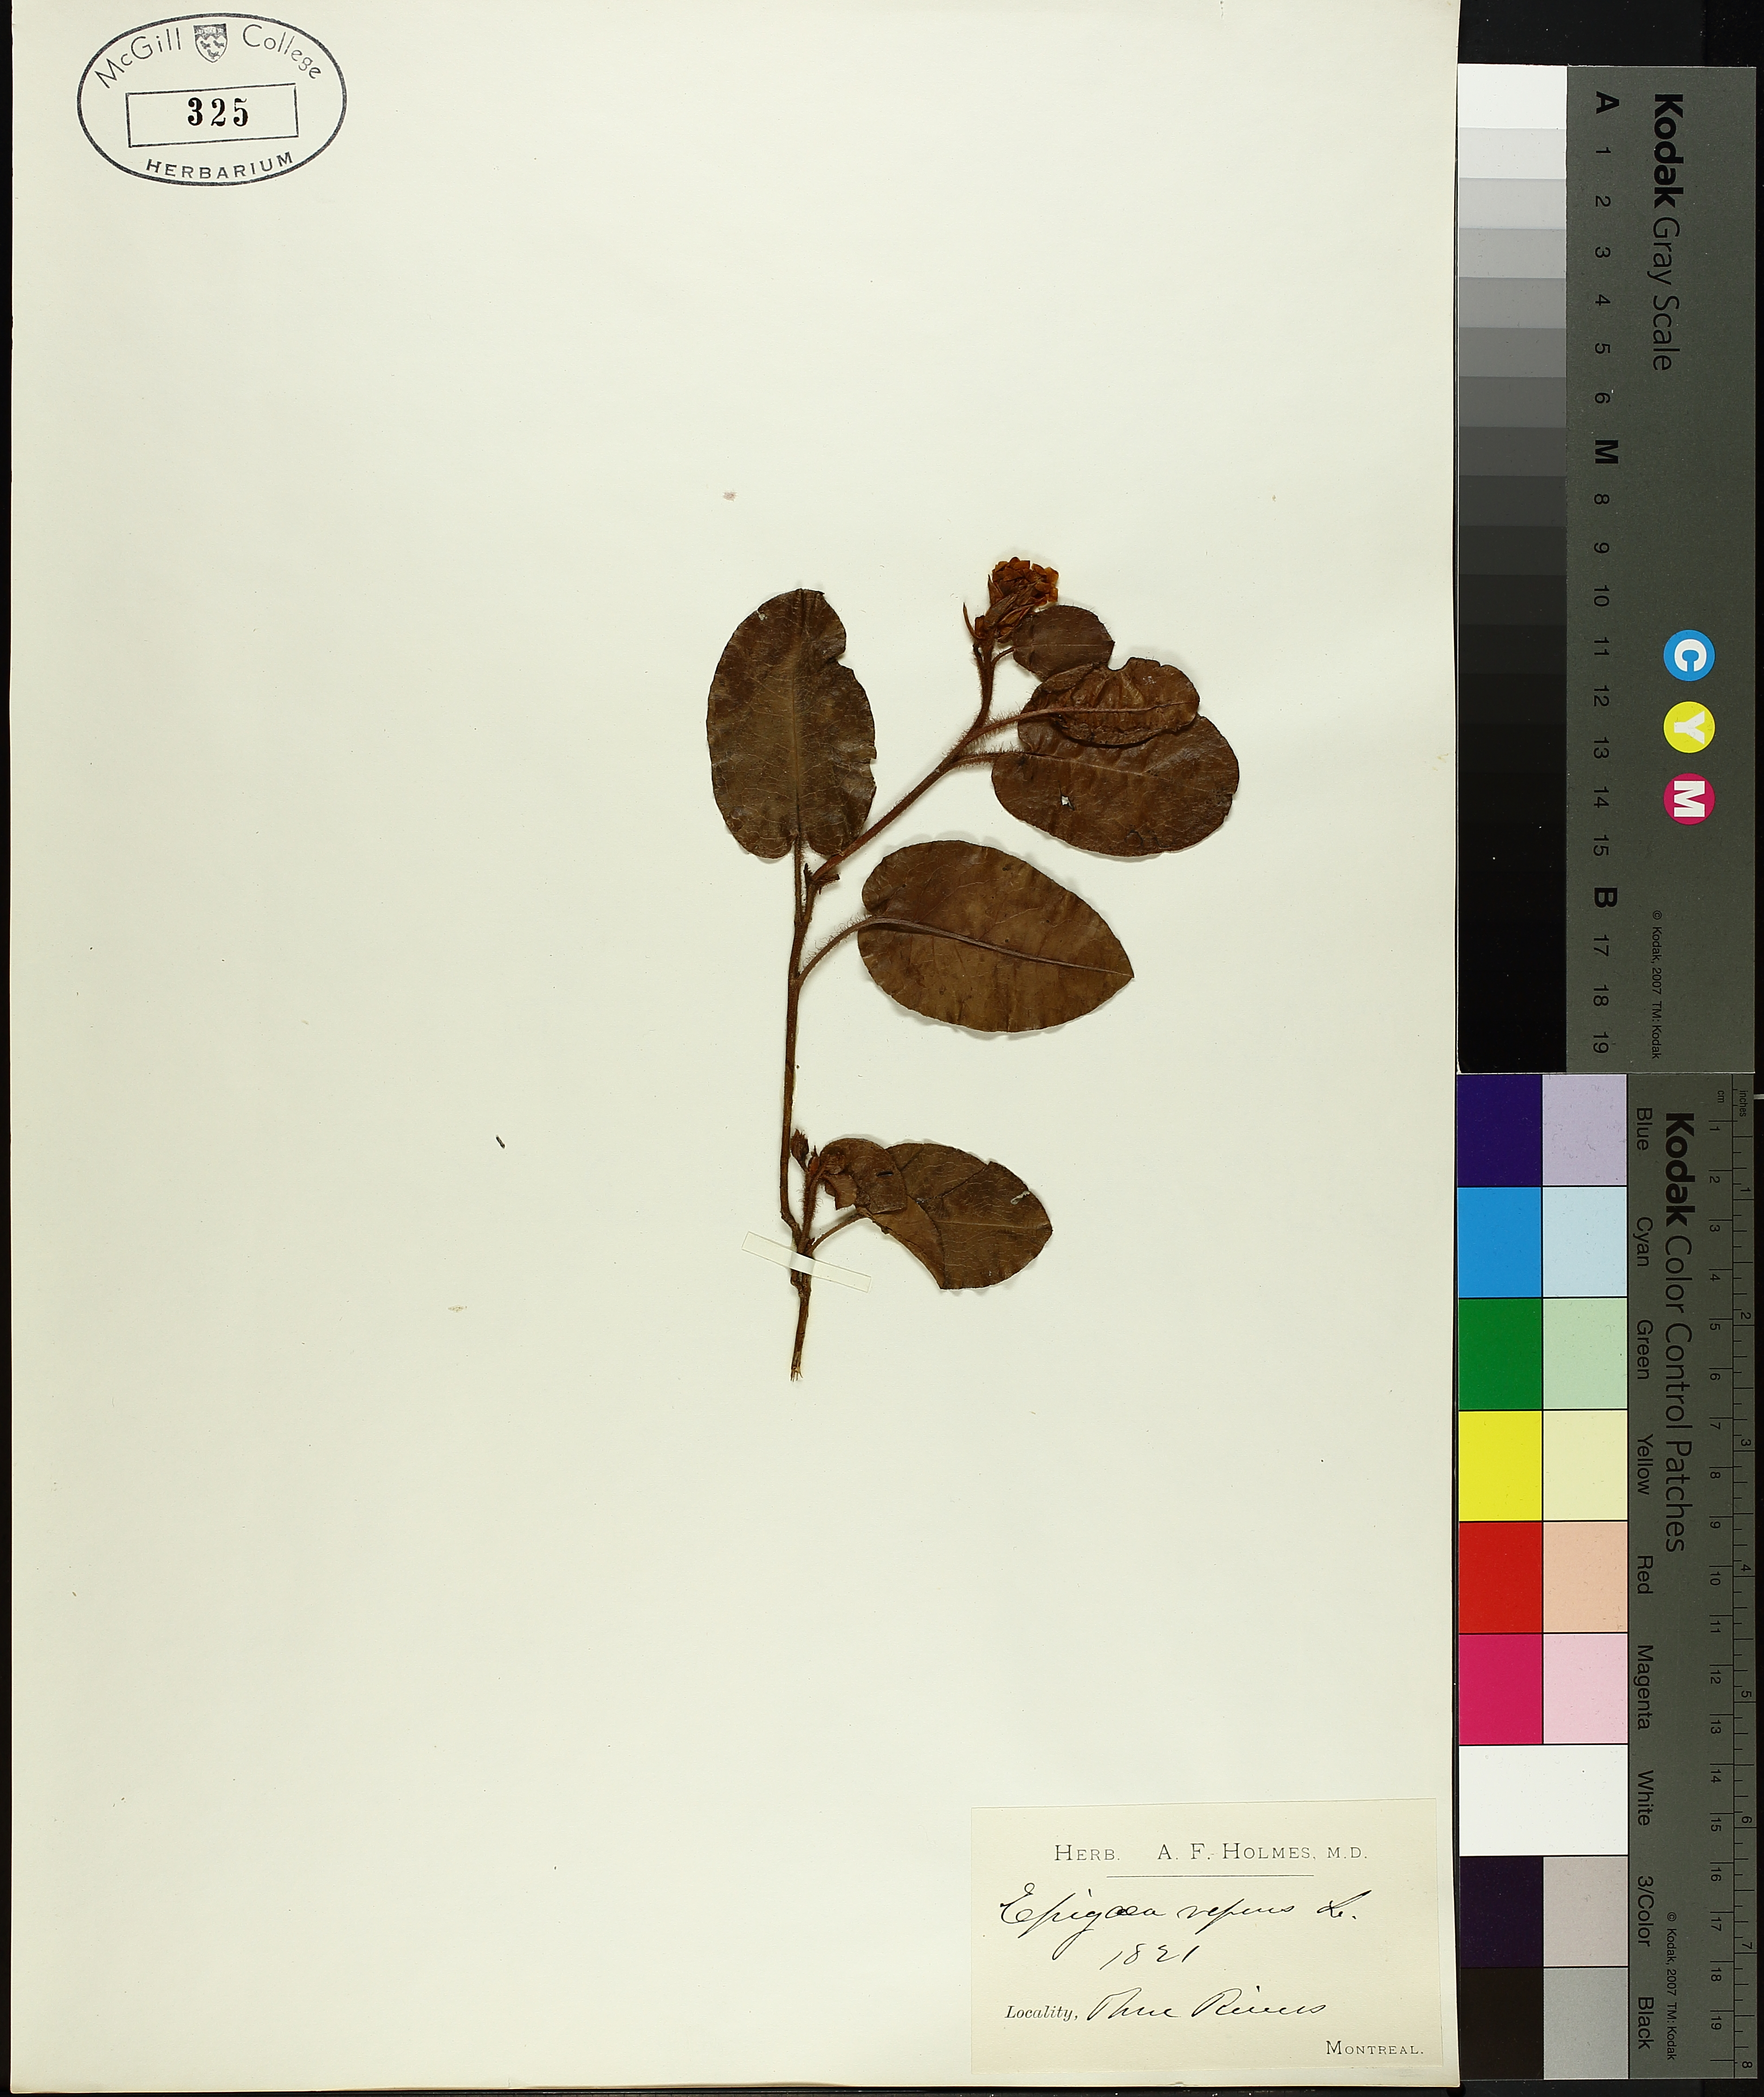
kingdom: Plantae
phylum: Tracheophyta
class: Magnoliopsida
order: Ericales
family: Ericaceae
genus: Epigaea
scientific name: Epigaea repens
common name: Gravelroot
